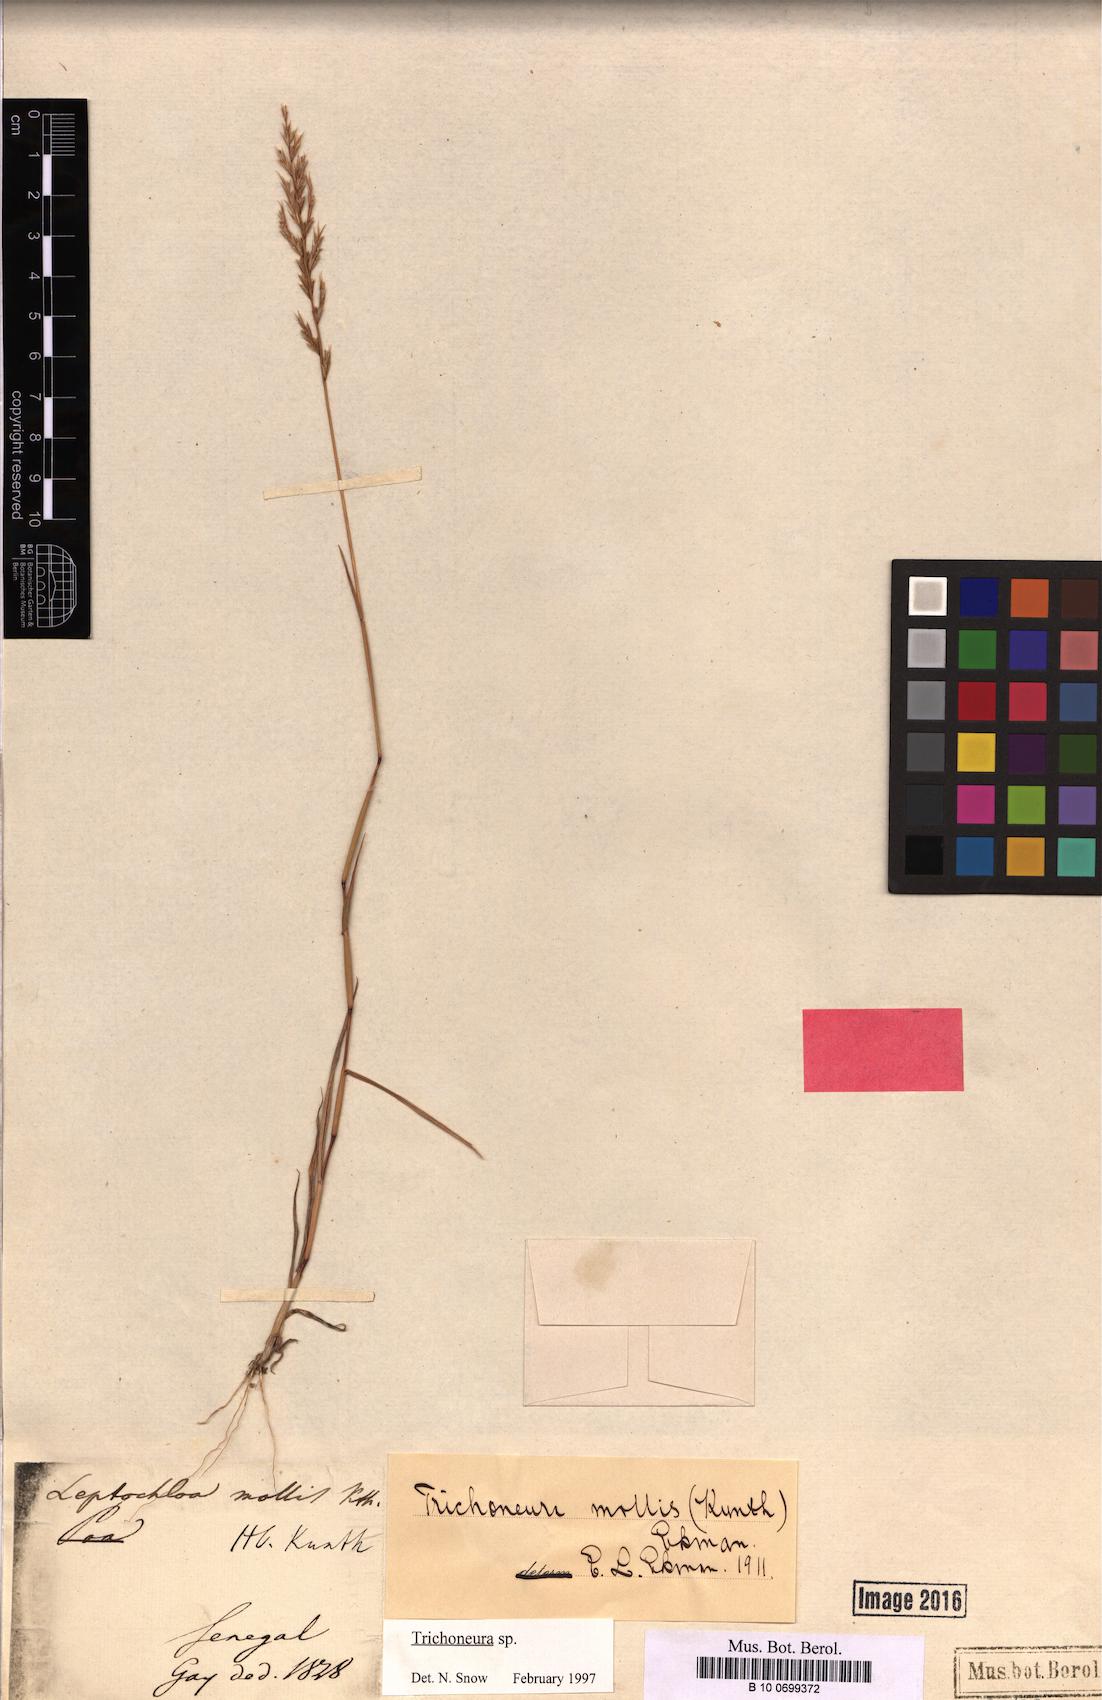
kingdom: Plantae
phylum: Tracheophyta
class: Liliopsida
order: Poales
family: Poaceae
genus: Trichoneura
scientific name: Trichoneura mollis
